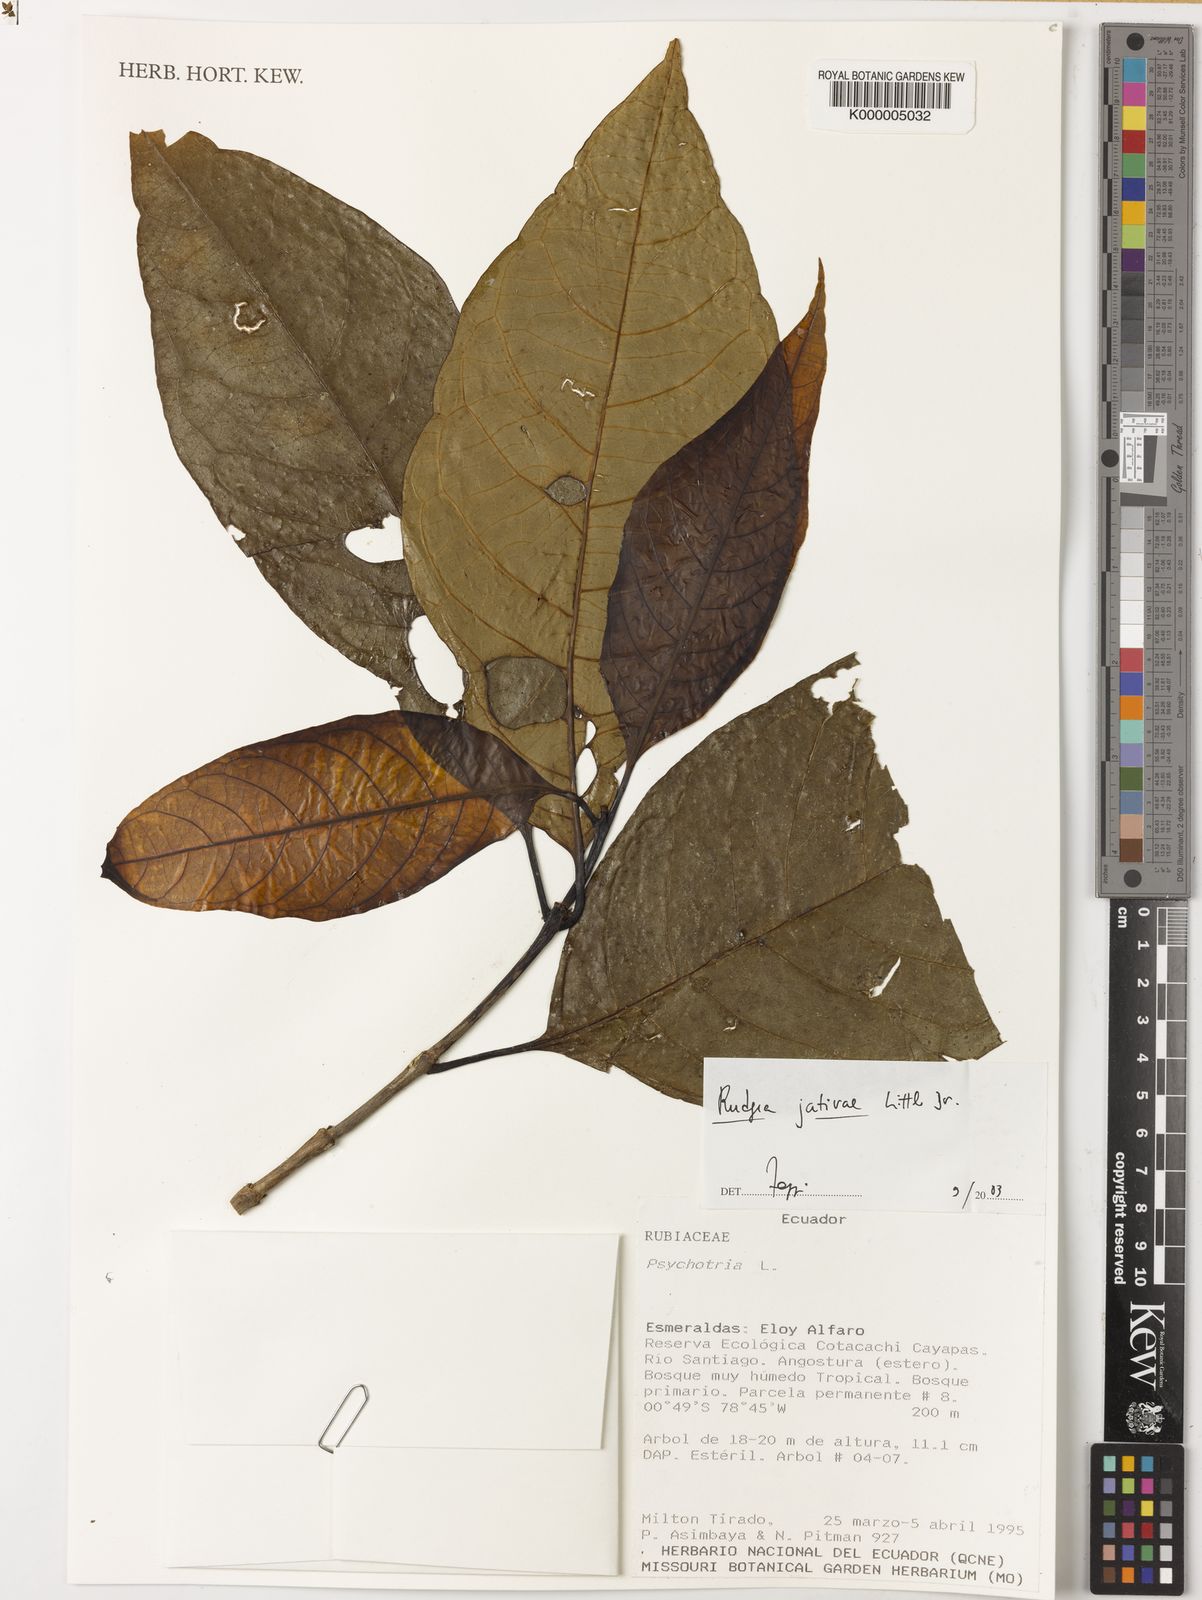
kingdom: Plantae
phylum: Tracheophyta
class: Magnoliopsida
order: Gentianales
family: Rubiaceae
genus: Rudgea
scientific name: Rudgea colombiana
